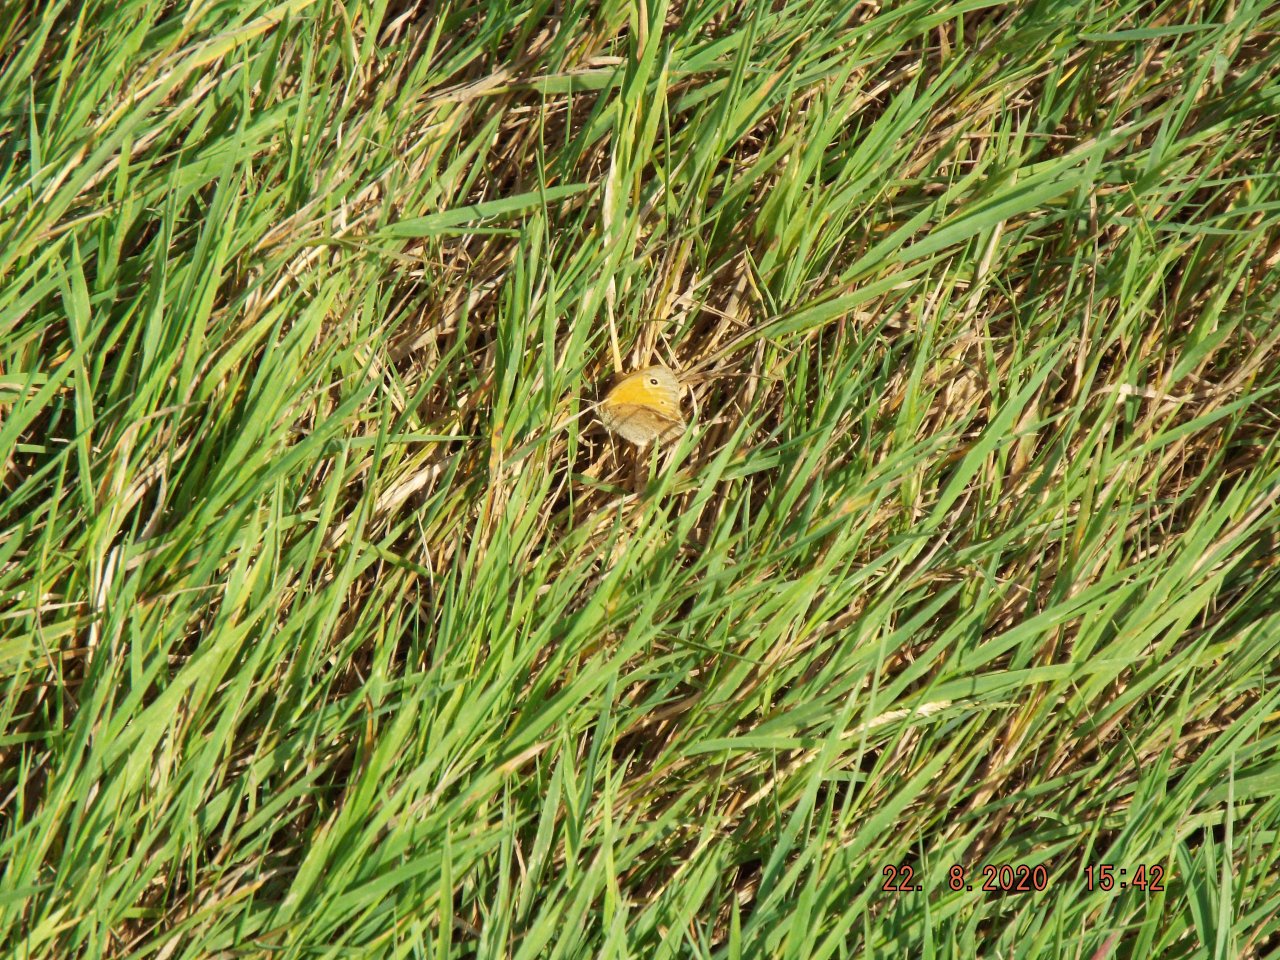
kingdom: Animalia
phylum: Arthropoda
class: Insecta
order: Lepidoptera
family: Nymphalidae
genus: Coenonympha
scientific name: Coenonympha tullia
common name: Large Heath
